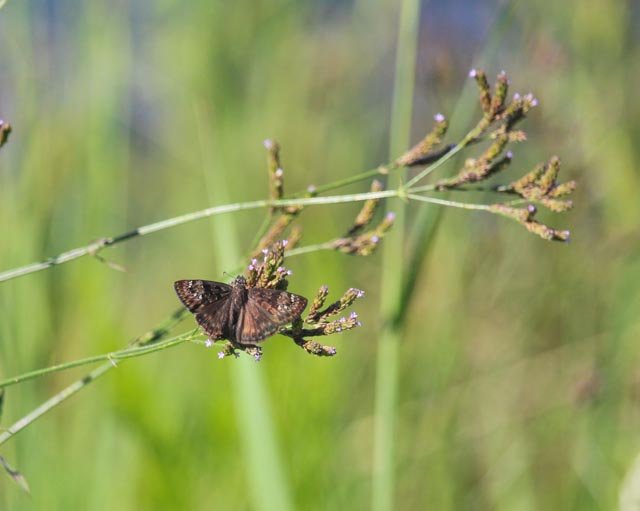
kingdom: Animalia
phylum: Arthropoda
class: Insecta
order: Lepidoptera
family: Hesperiidae
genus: Gesta
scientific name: Gesta
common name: Horace's Duskywing
